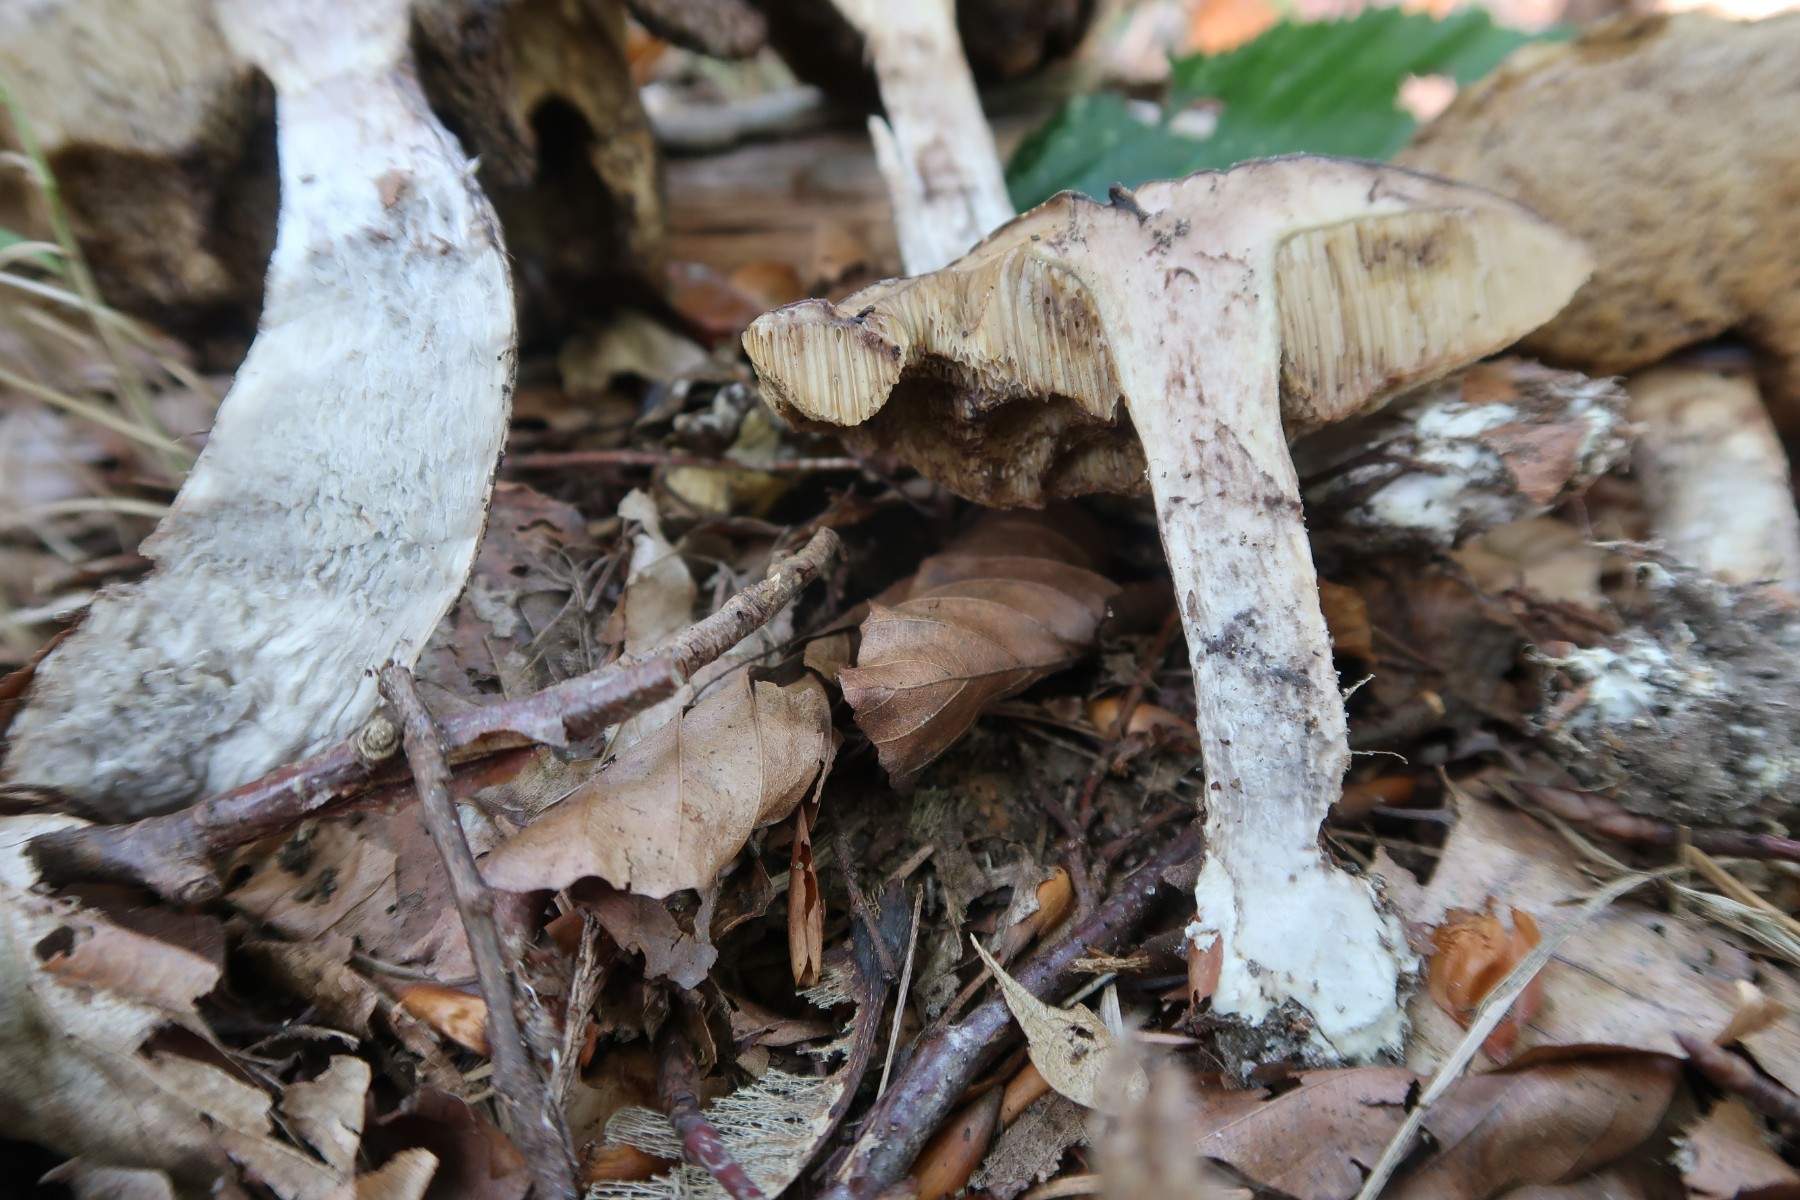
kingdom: Fungi
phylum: Basidiomycota
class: Agaricomycetes
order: Boletales
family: Boletaceae
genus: Leccinellum
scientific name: Leccinellum pseudoscabrum
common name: avnbøg-skælrørhat
